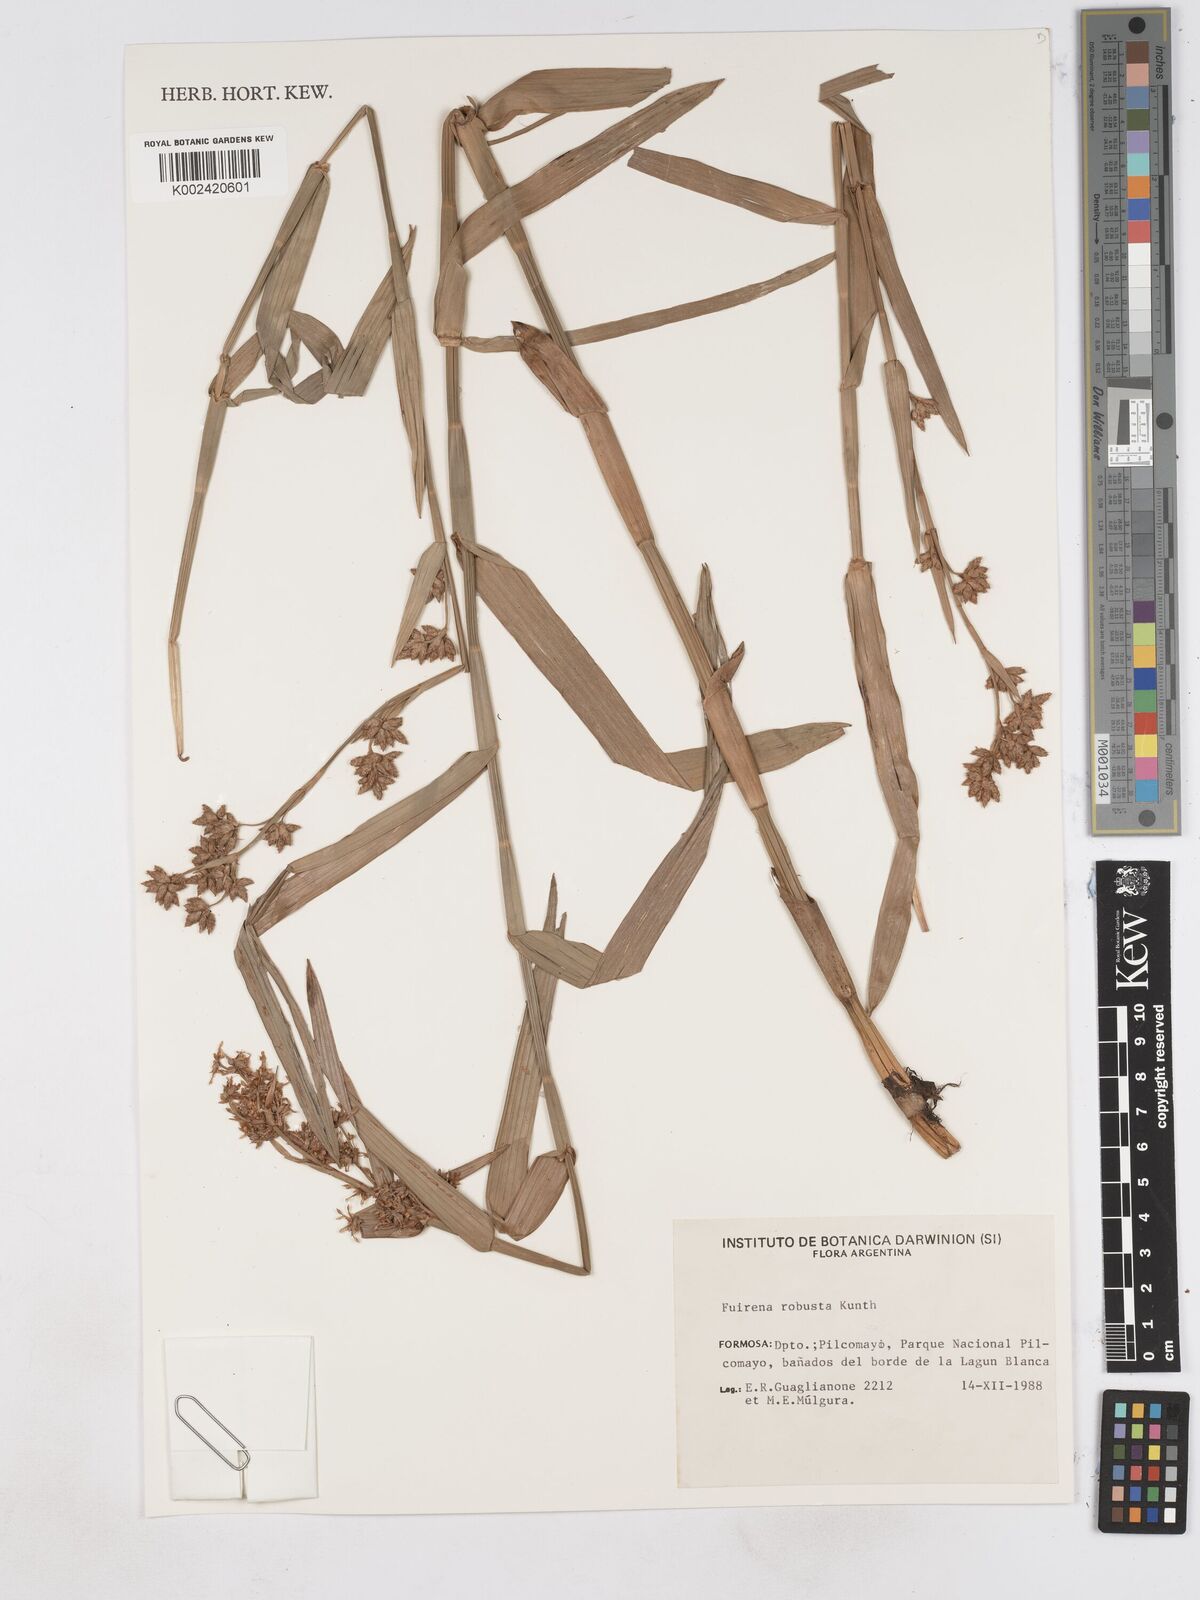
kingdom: Plantae
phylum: Tracheophyta
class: Liliopsida
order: Poales
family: Cyperaceae
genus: Fuirena
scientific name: Fuirena robusta
